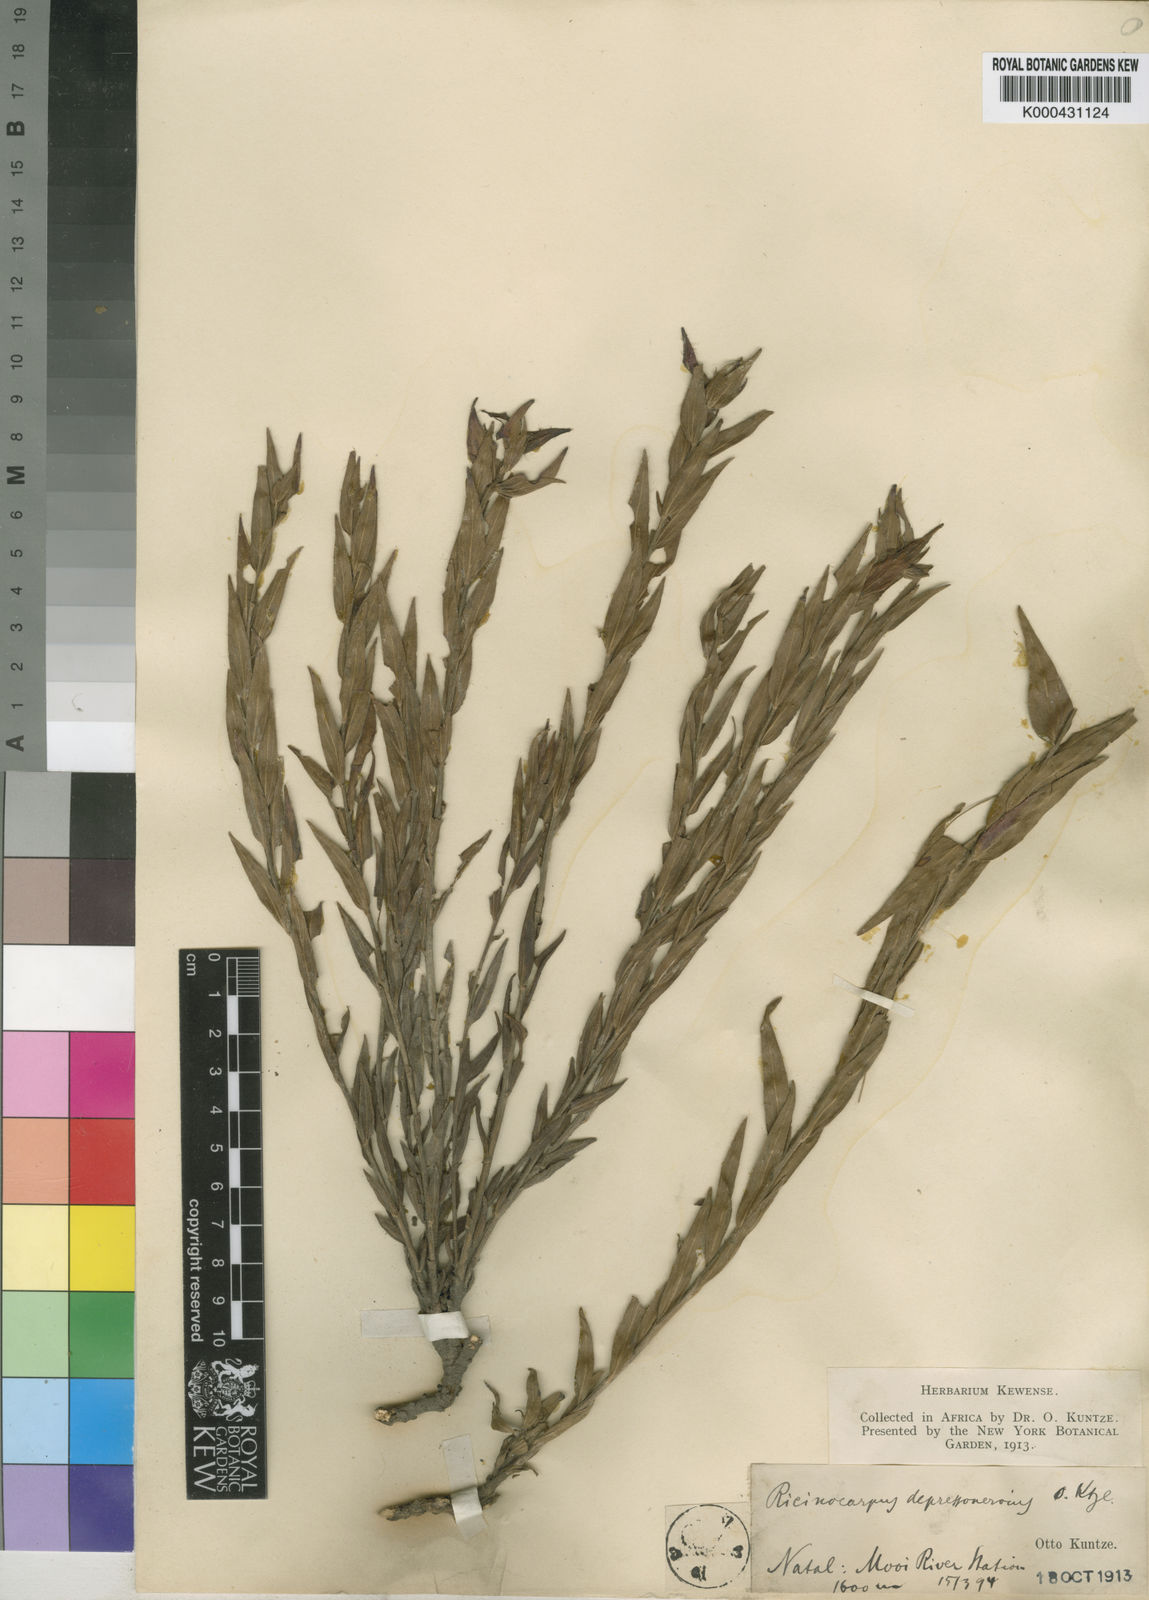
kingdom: Plantae
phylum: Tracheophyta
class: Magnoliopsida
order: Malpighiales
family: Euphorbiaceae
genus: Acalypha
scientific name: Acalypha depressinervia
